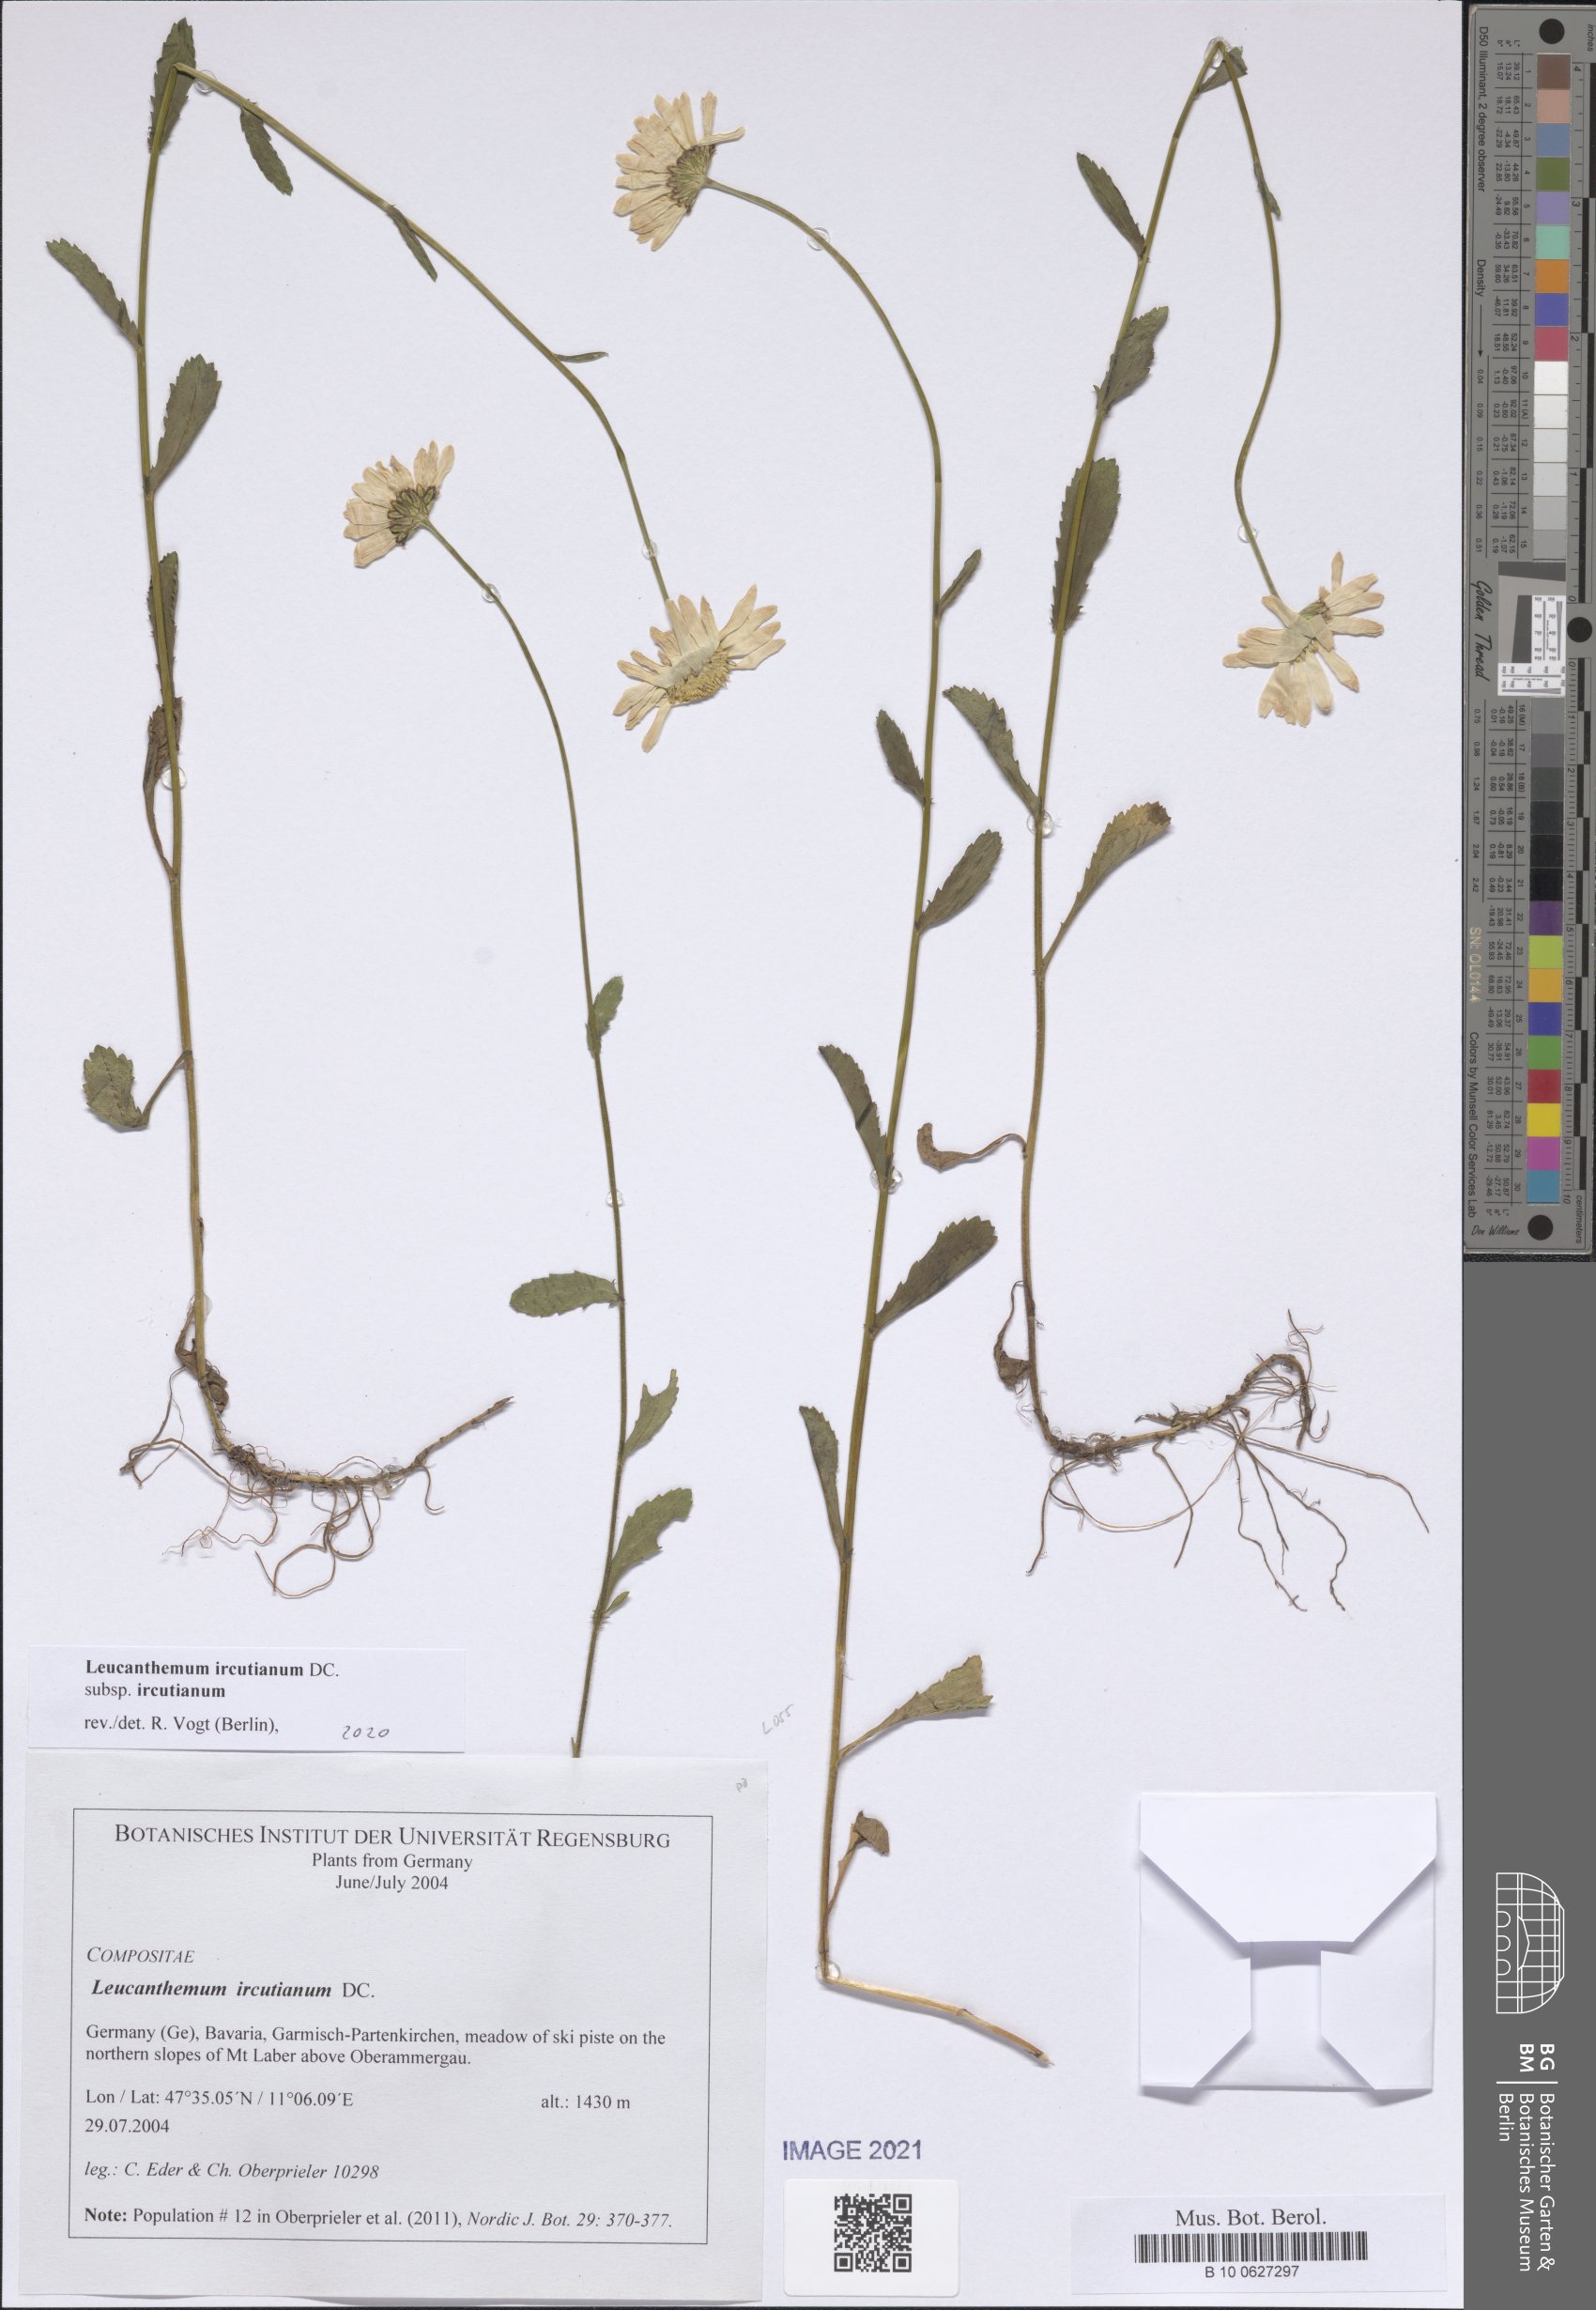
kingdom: Plantae
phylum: Tracheophyta
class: Magnoliopsida
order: Asterales
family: Asteraceae
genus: Leucanthemum
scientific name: Leucanthemum ircutianum
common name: Daisy
